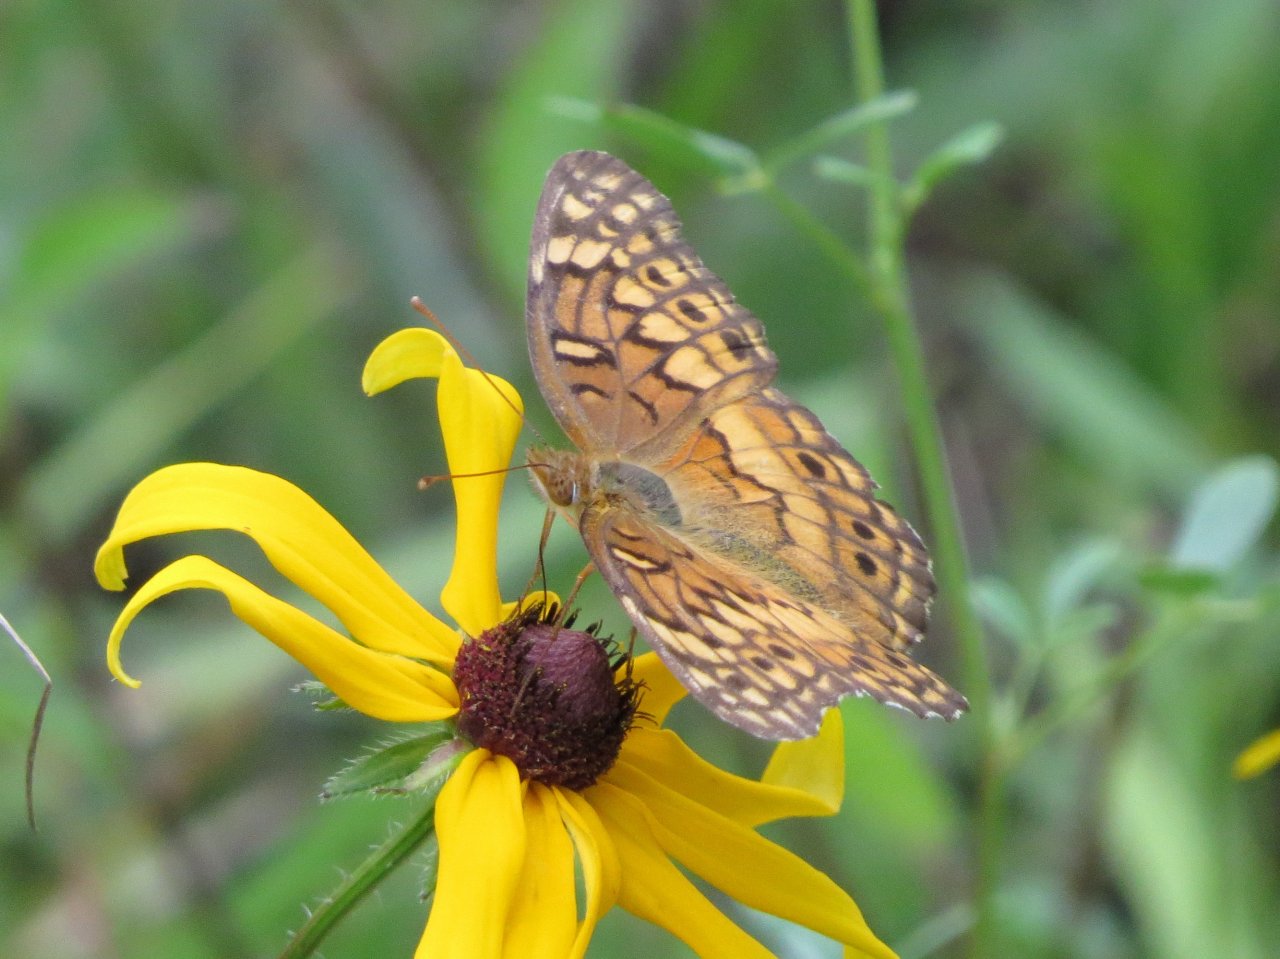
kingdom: Animalia
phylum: Arthropoda
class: Insecta
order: Lepidoptera
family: Nymphalidae
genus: Euptoieta
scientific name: Euptoieta claudia
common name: Variegated Fritillary
